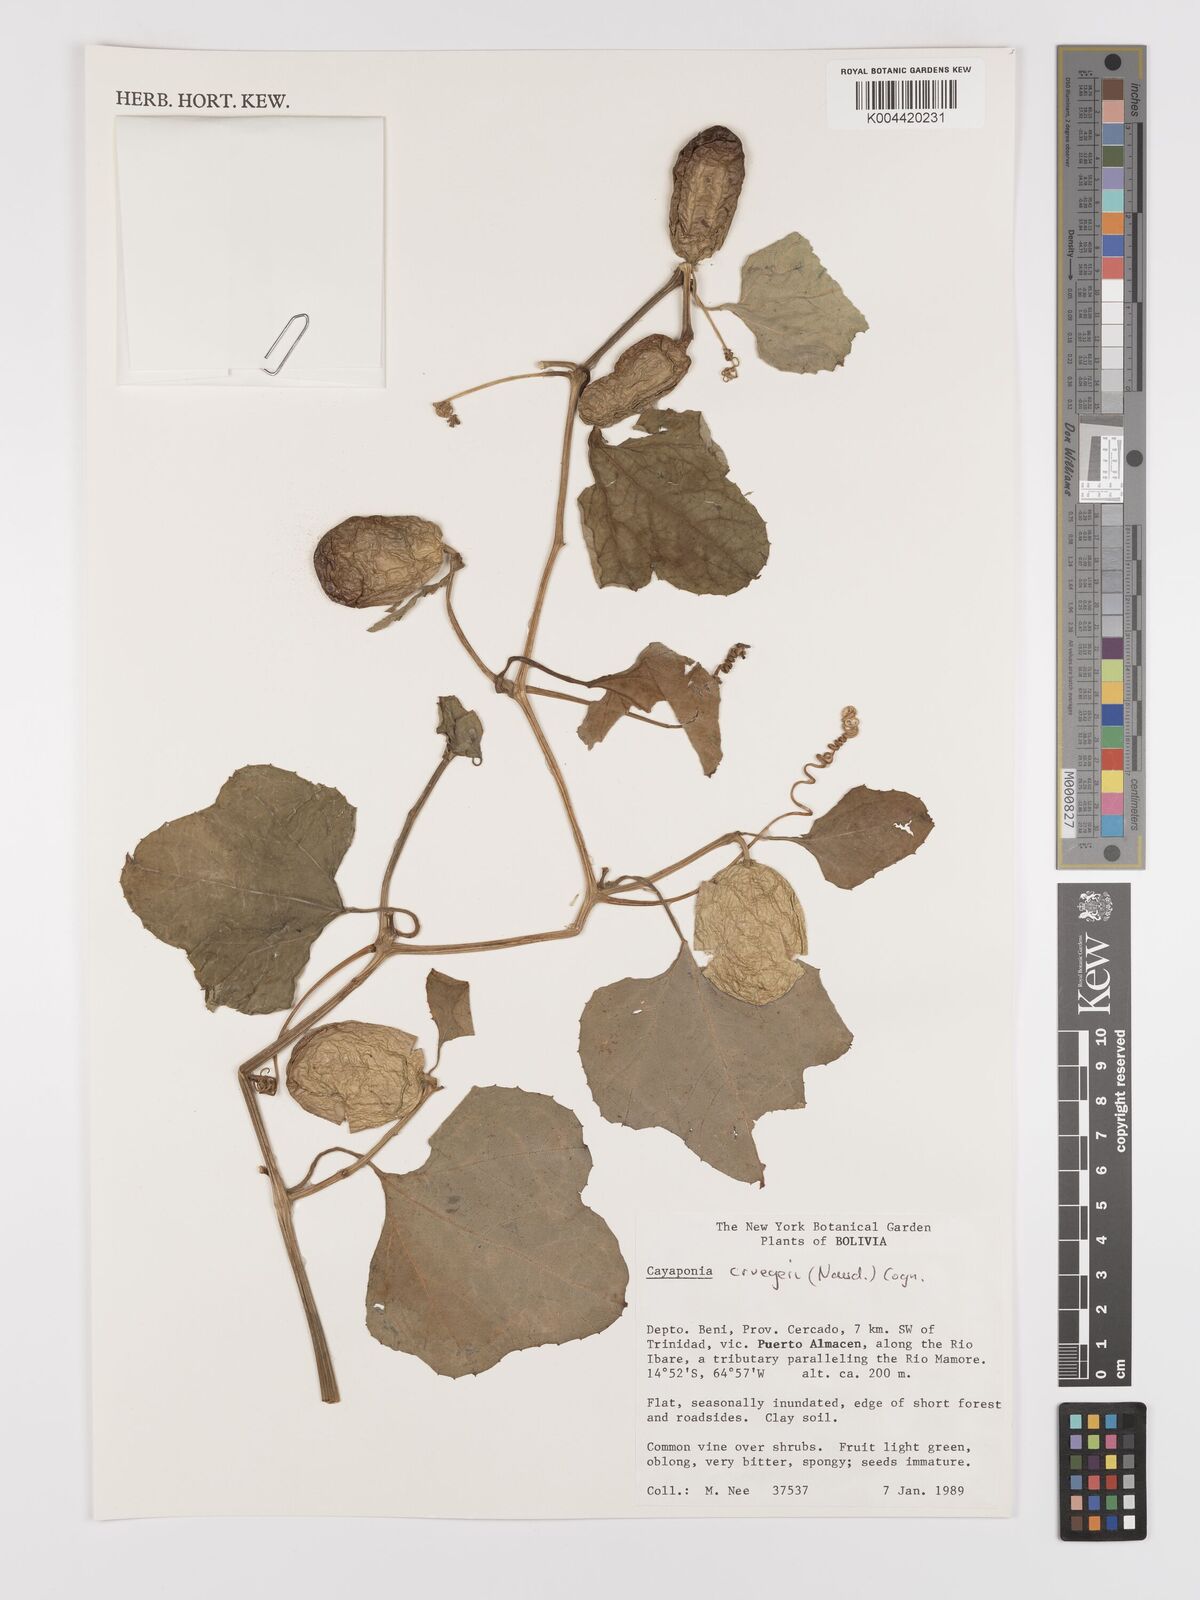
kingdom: Plantae
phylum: Tracheophyta
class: Magnoliopsida
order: Cucurbitales
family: Cucurbitaceae
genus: Cayaponia
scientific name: Cayaponia cruegeri
